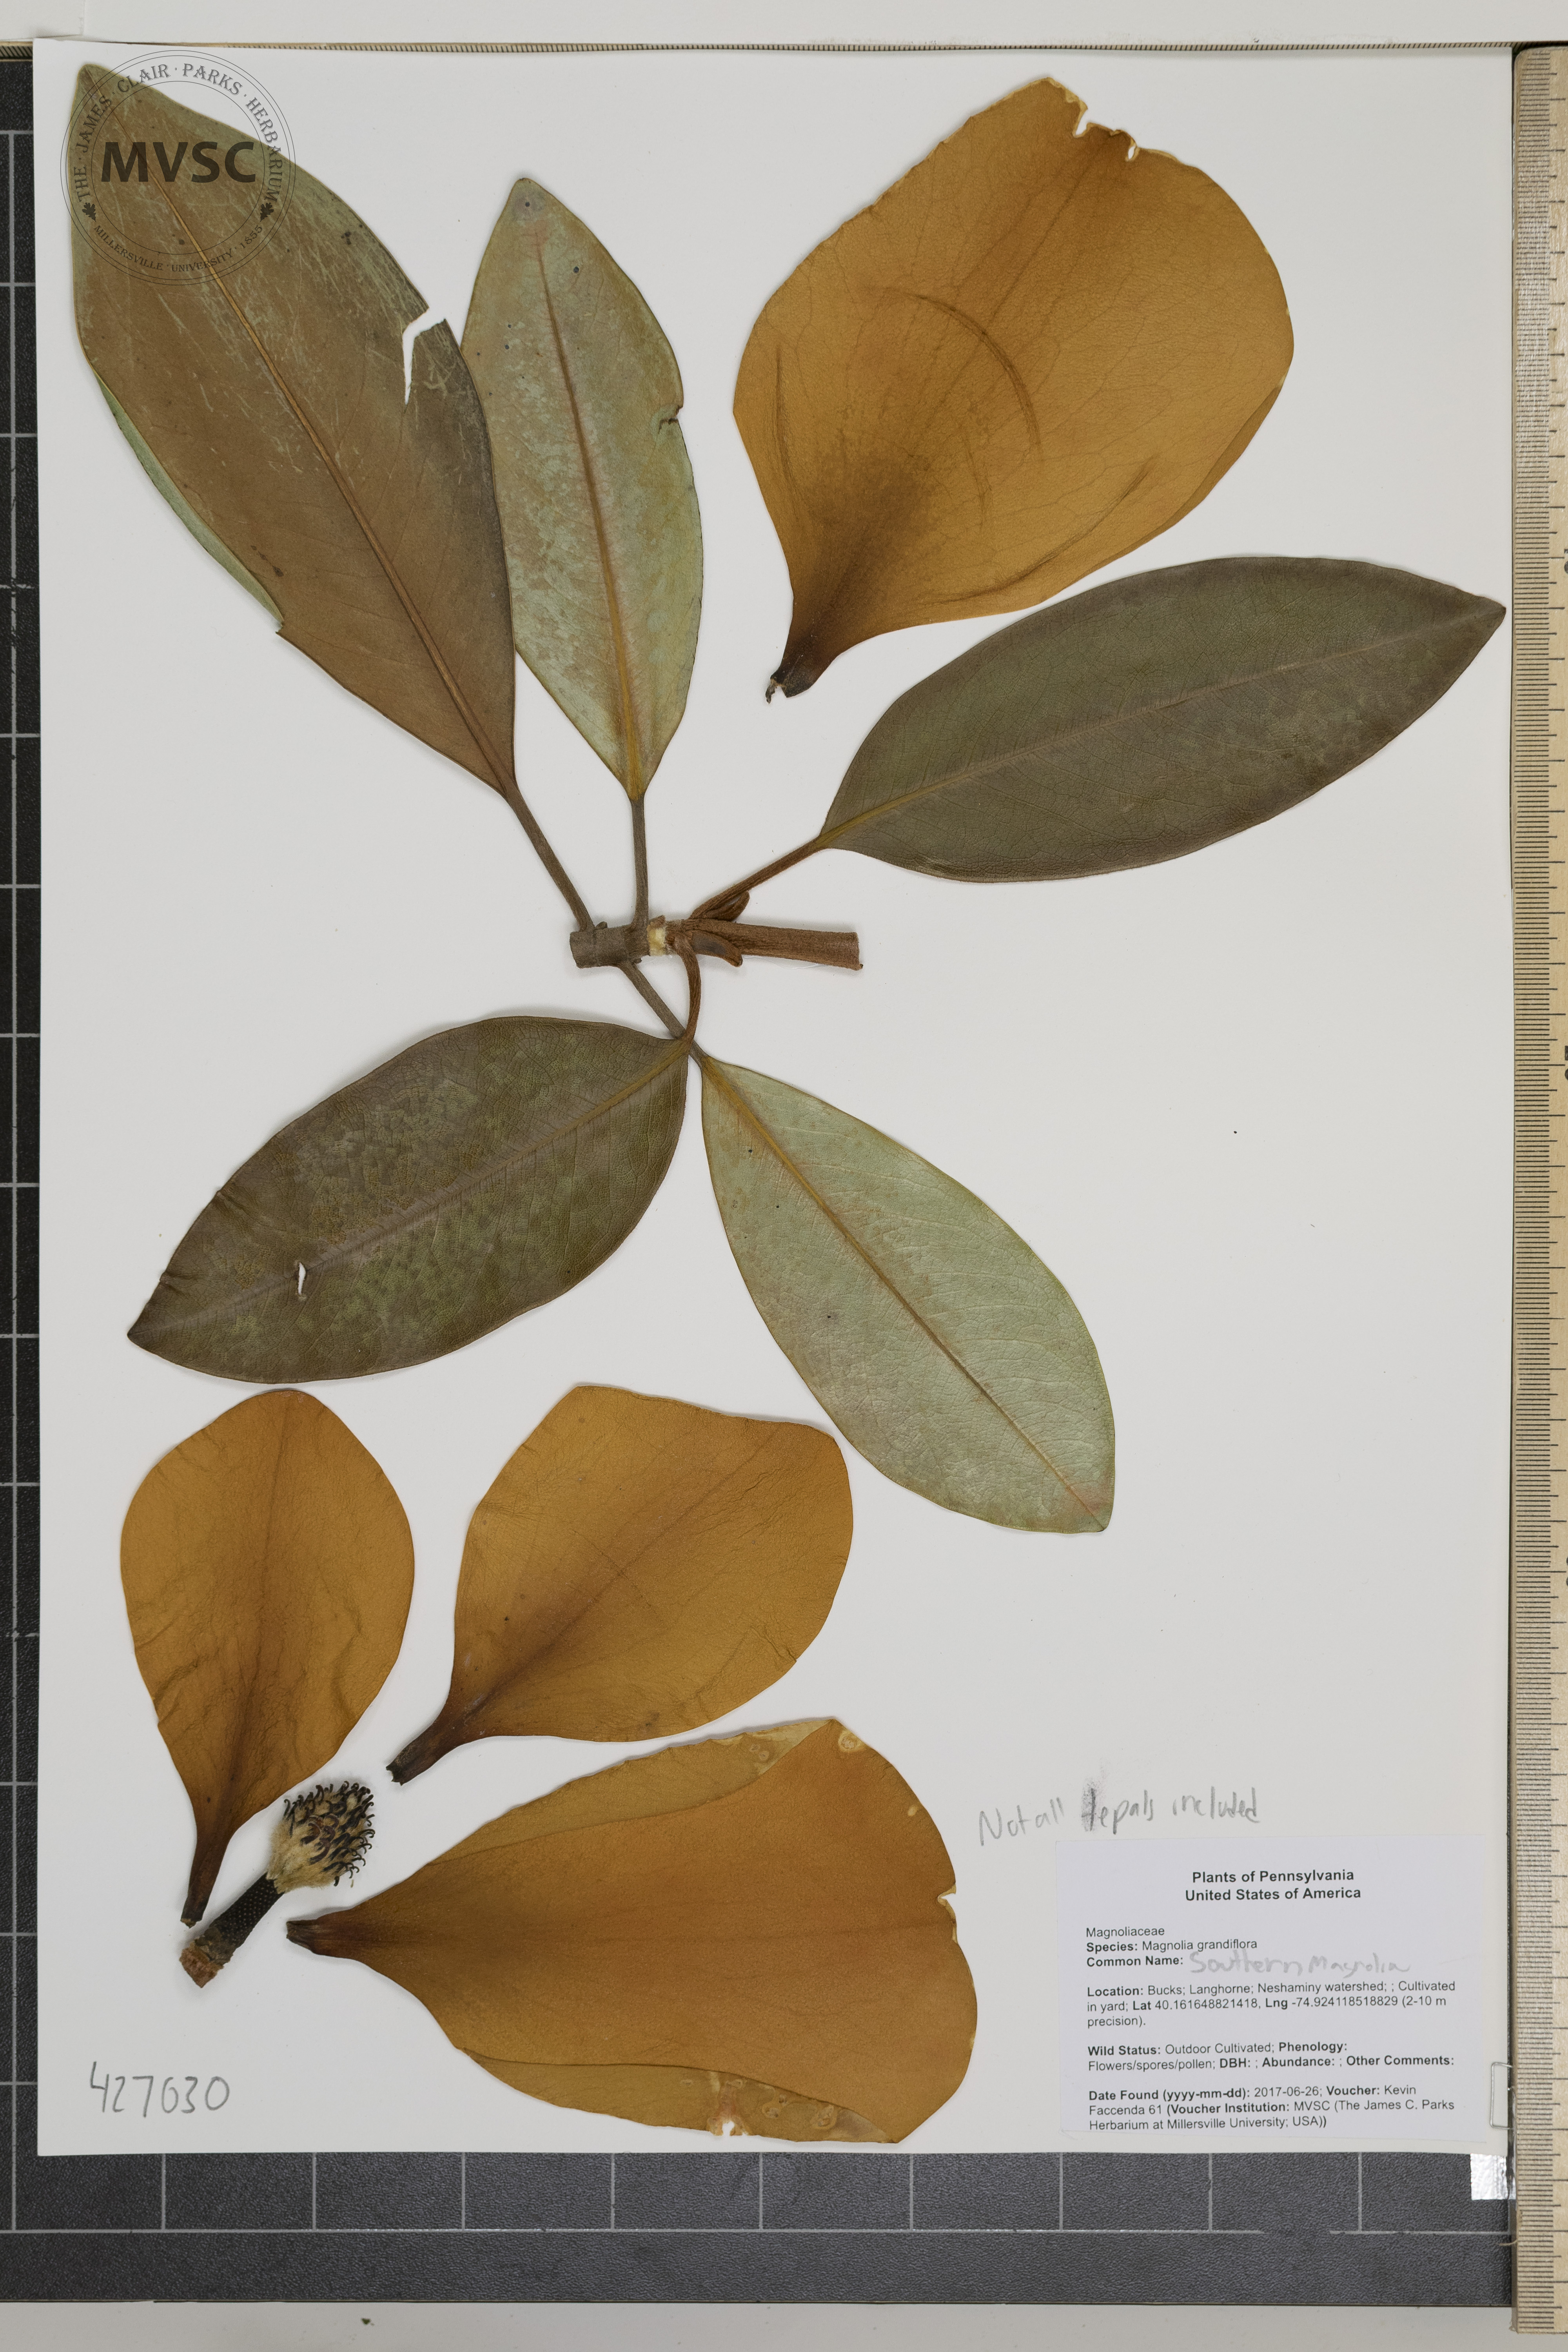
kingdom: Plantae
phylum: Tracheophyta
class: Magnoliopsida
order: Magnoliales
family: Magnoliaceae
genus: Magnolia
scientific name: Magnolia grandiflora
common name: Southern magnolia
